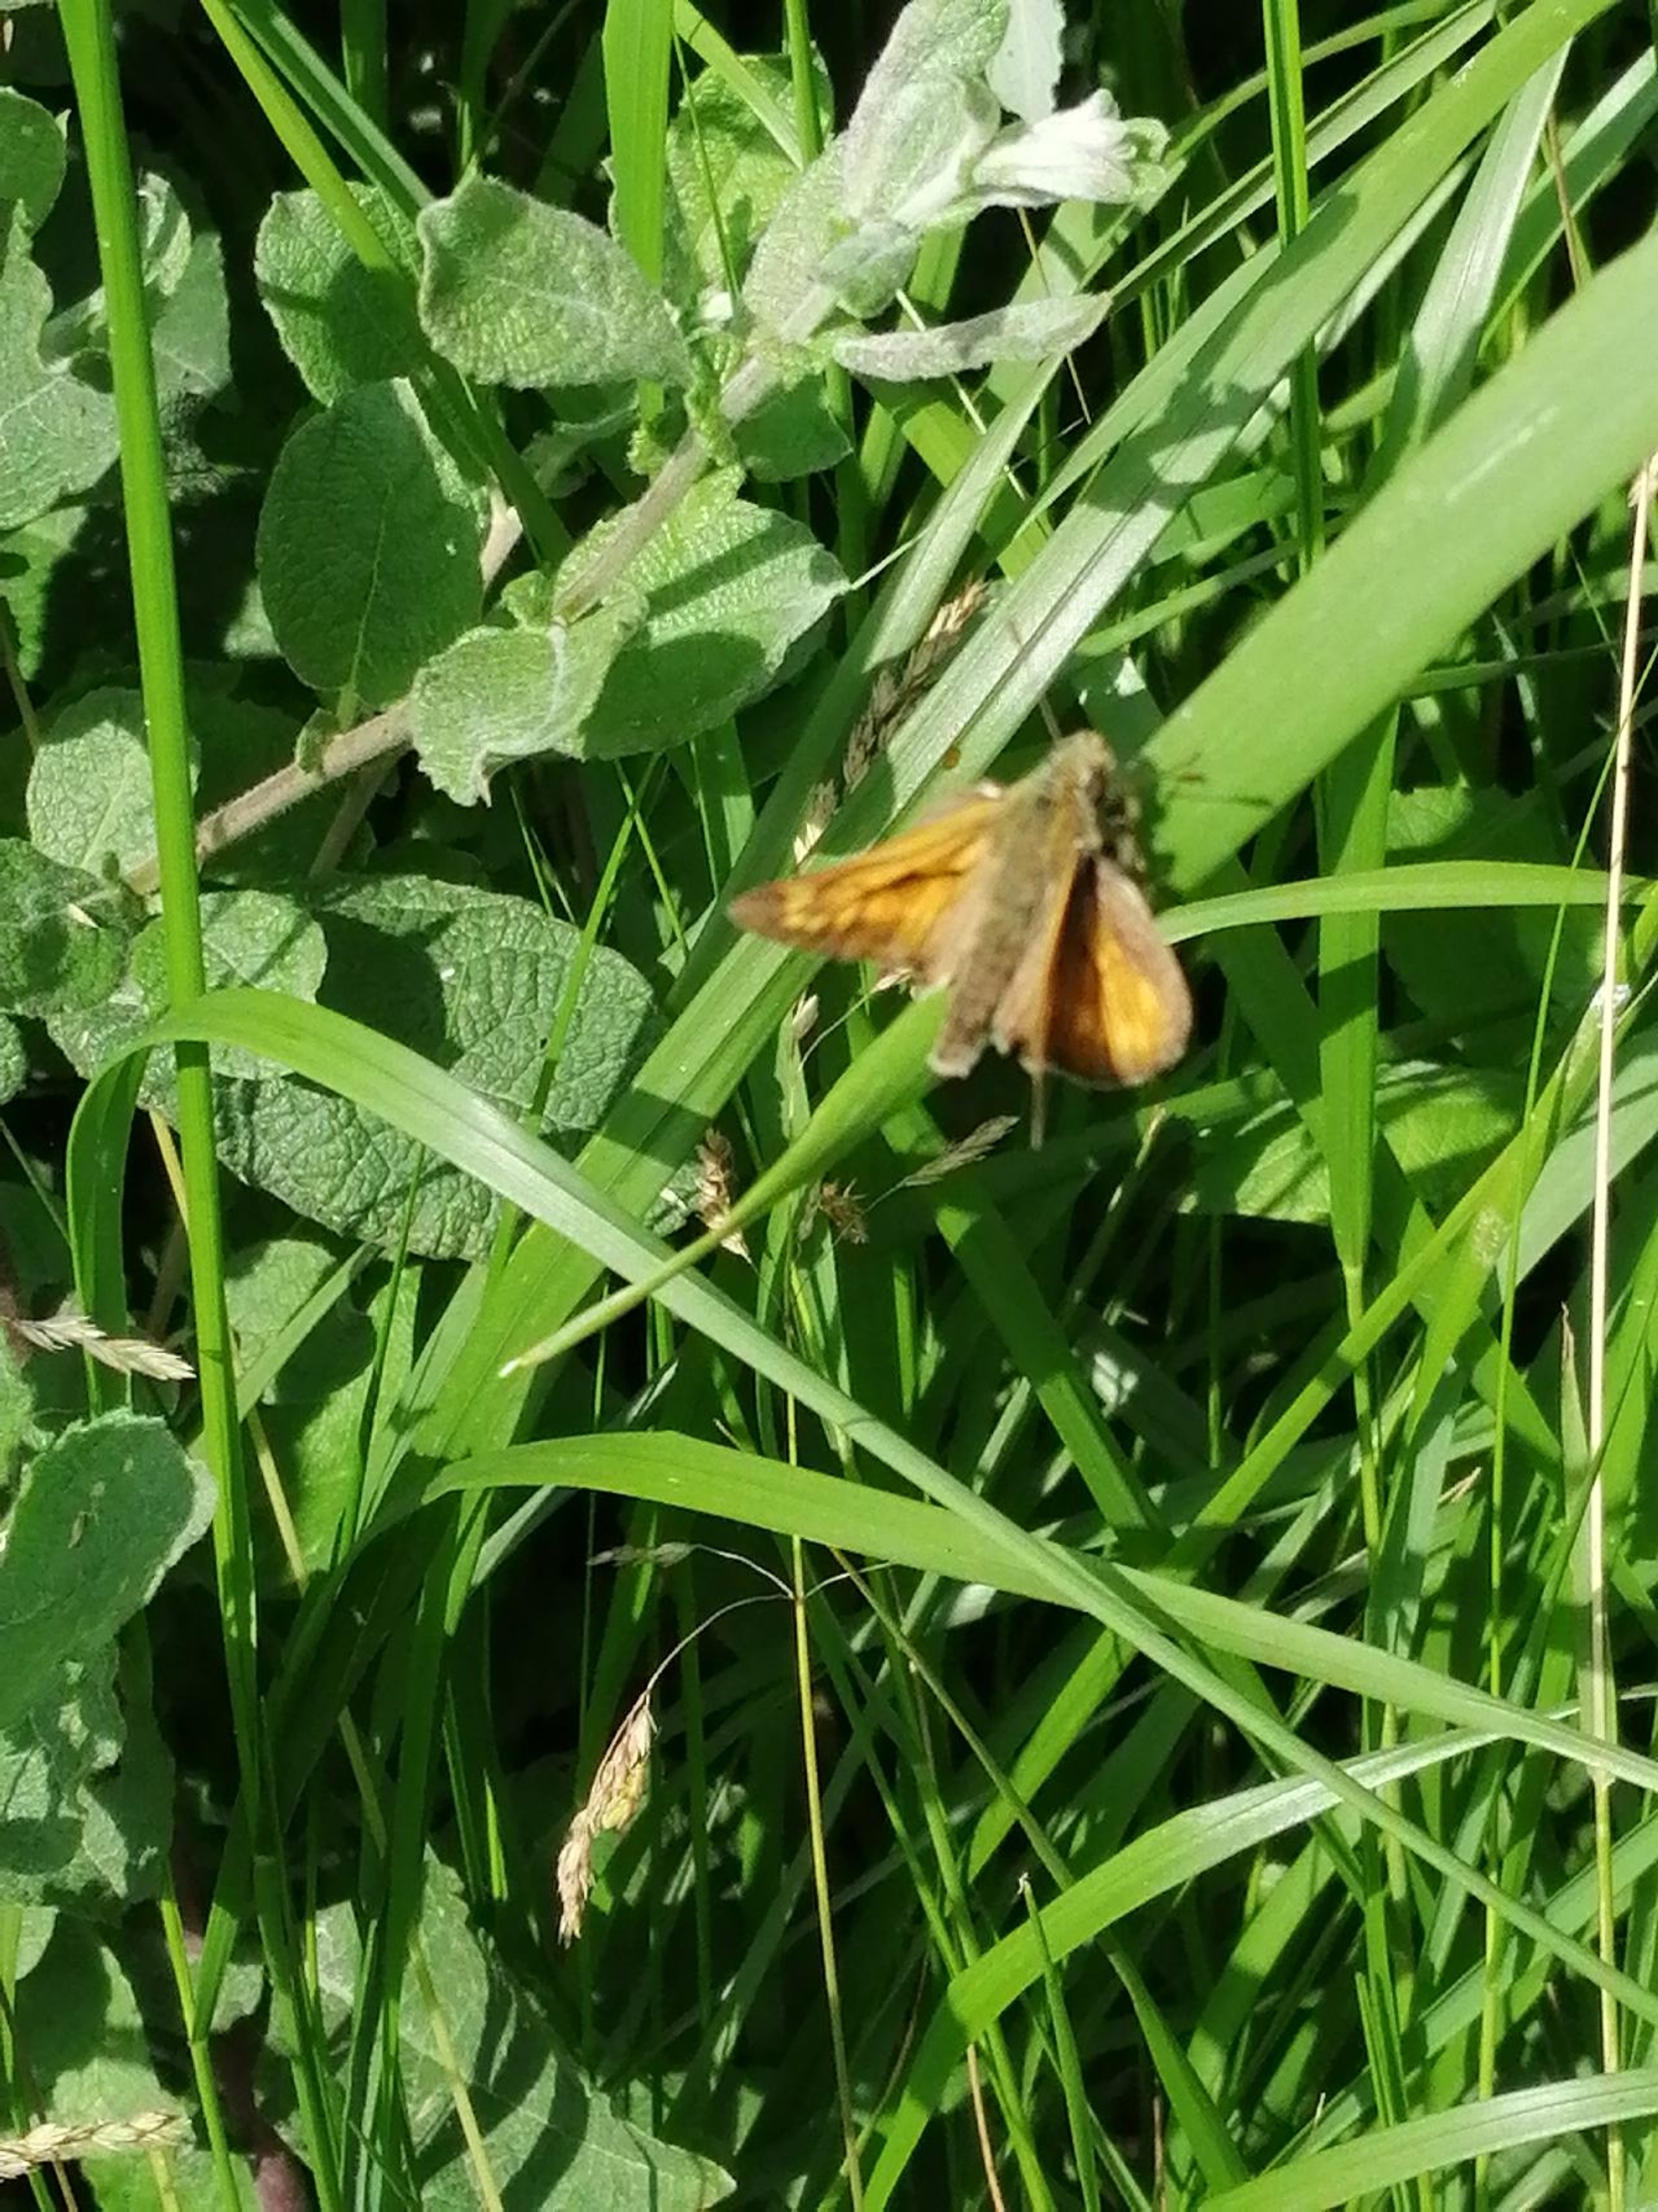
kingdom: Animalia
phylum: Arthropoda
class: Insecta
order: Lepidoptera
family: Hesperiidae
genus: Ochlodes
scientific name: Ochlodes venata
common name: Stor bredpande
